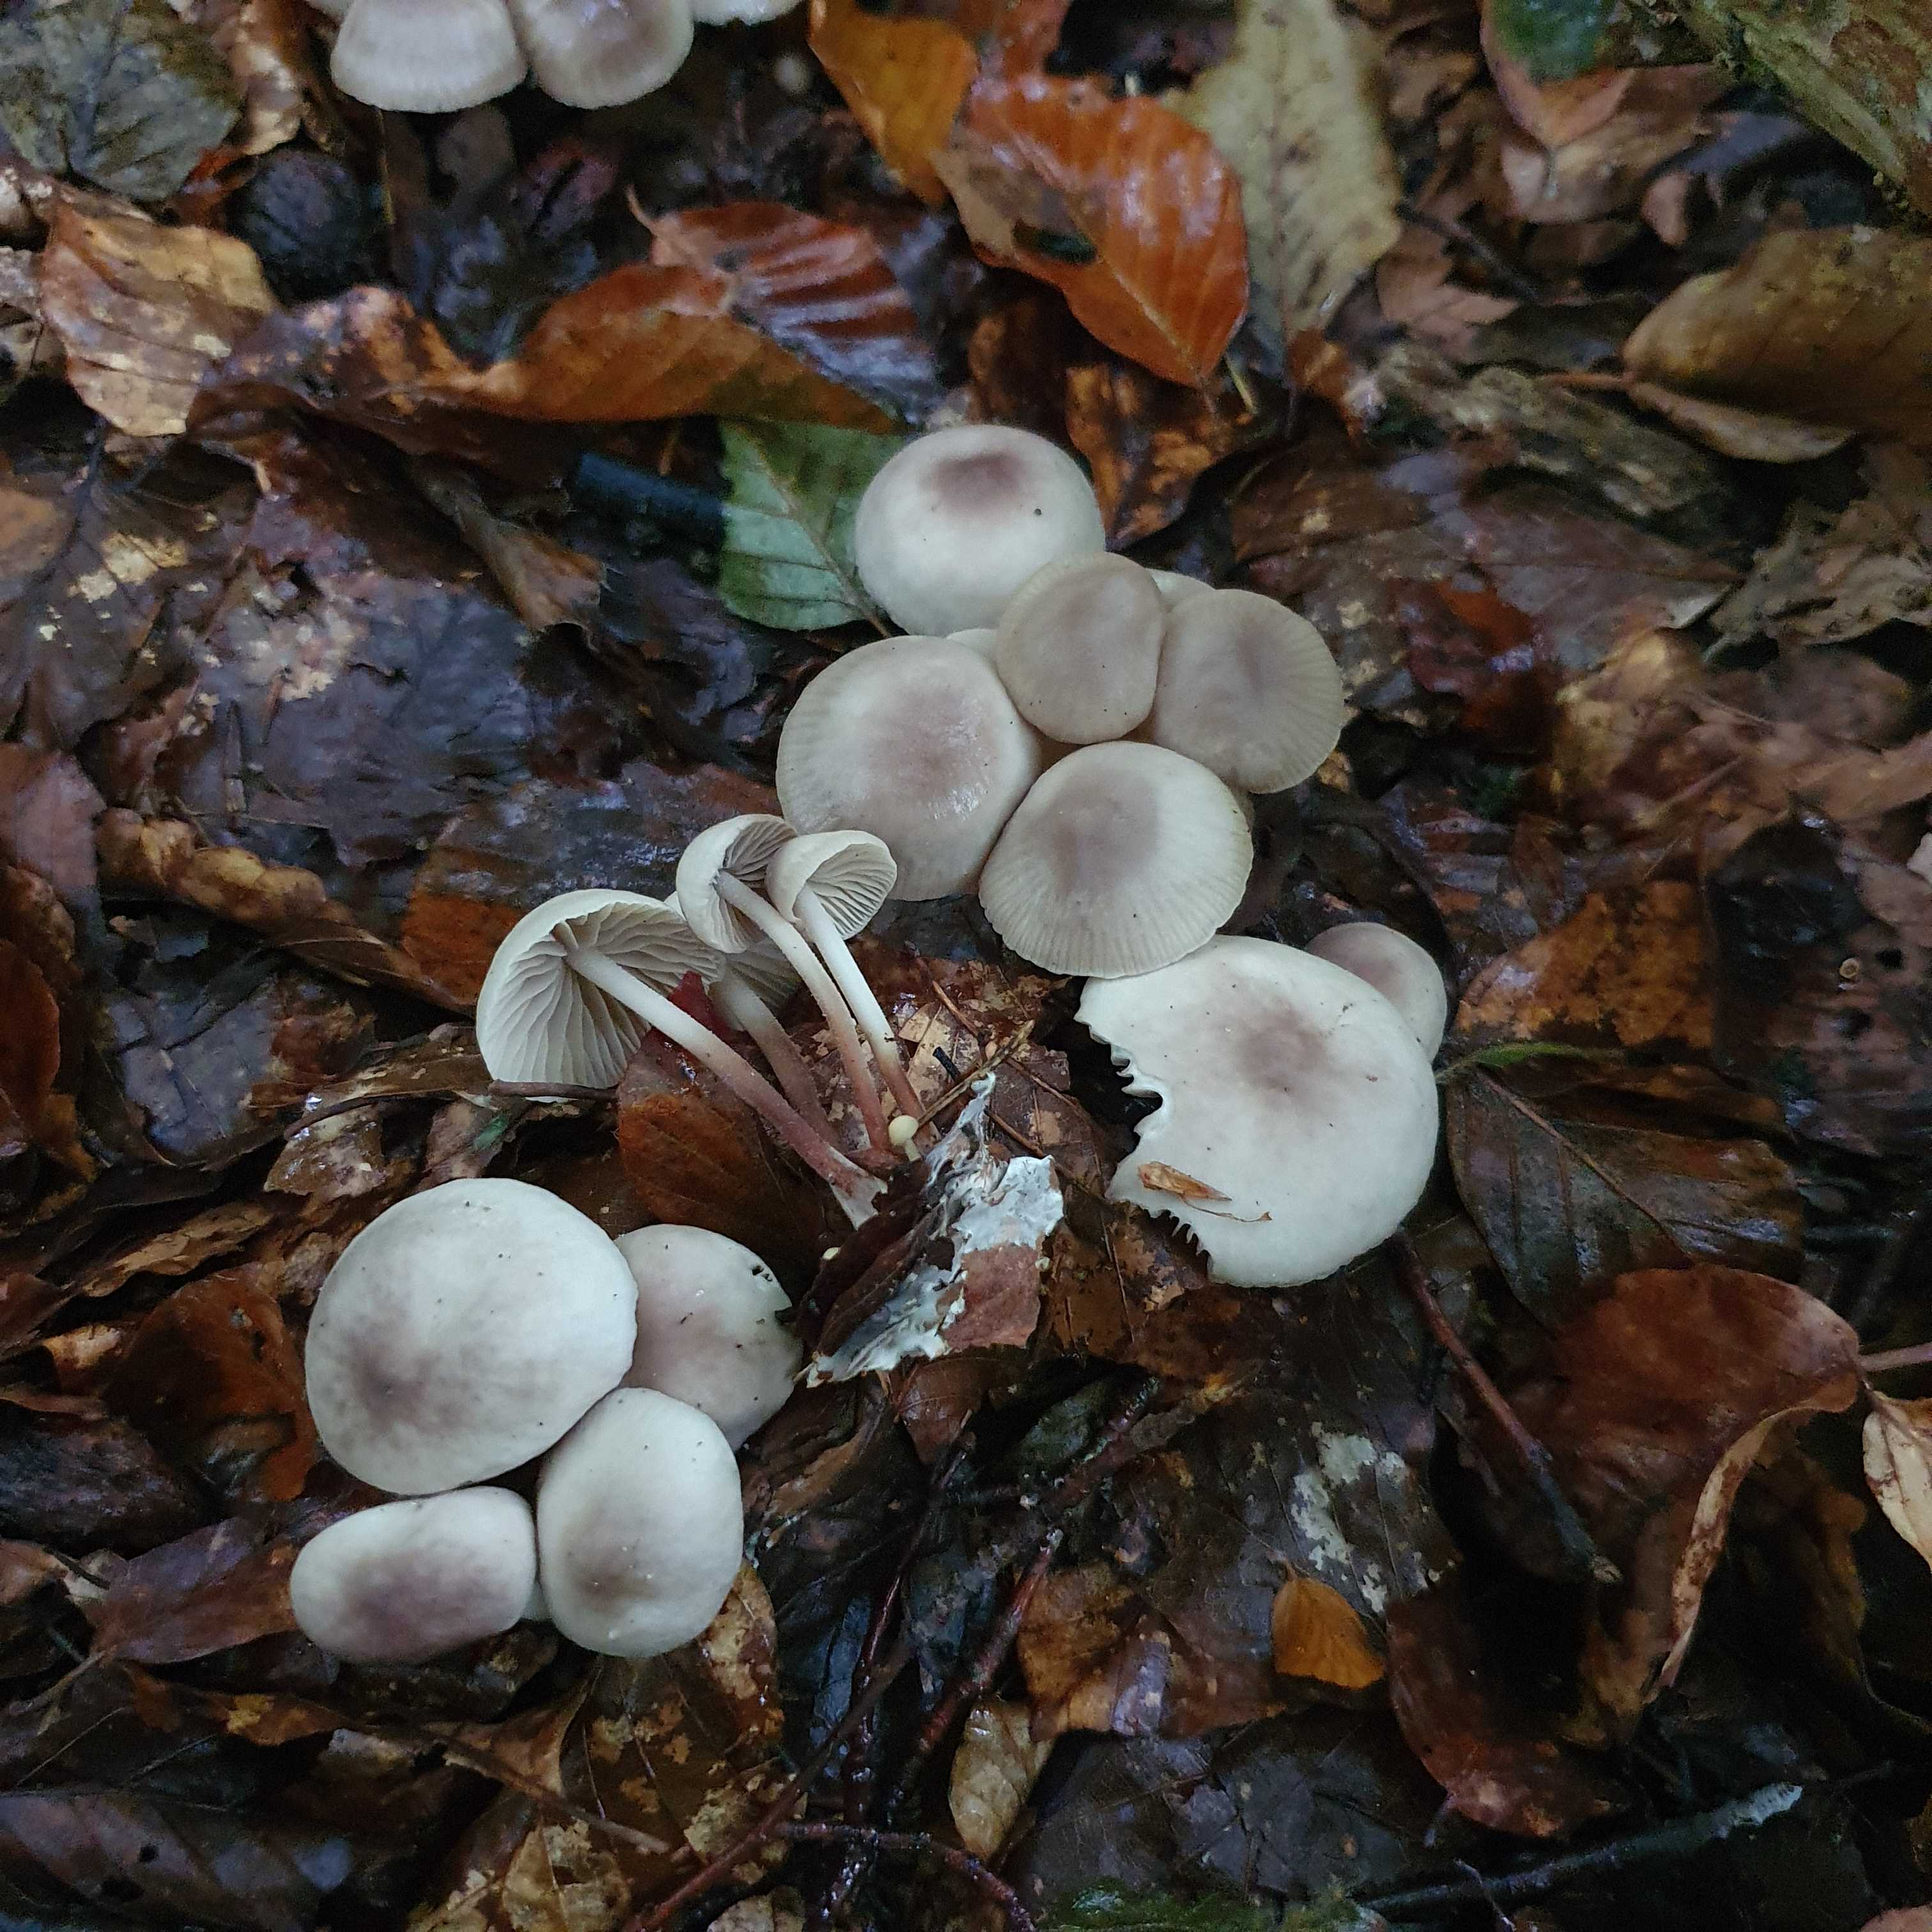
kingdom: Fungi
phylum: Basidiomycota
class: Agaricomycetes
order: Agaricales
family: Marasmiaceae
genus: Marasmius
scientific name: Marasmius wynneae
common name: hvælvet bruskhat
